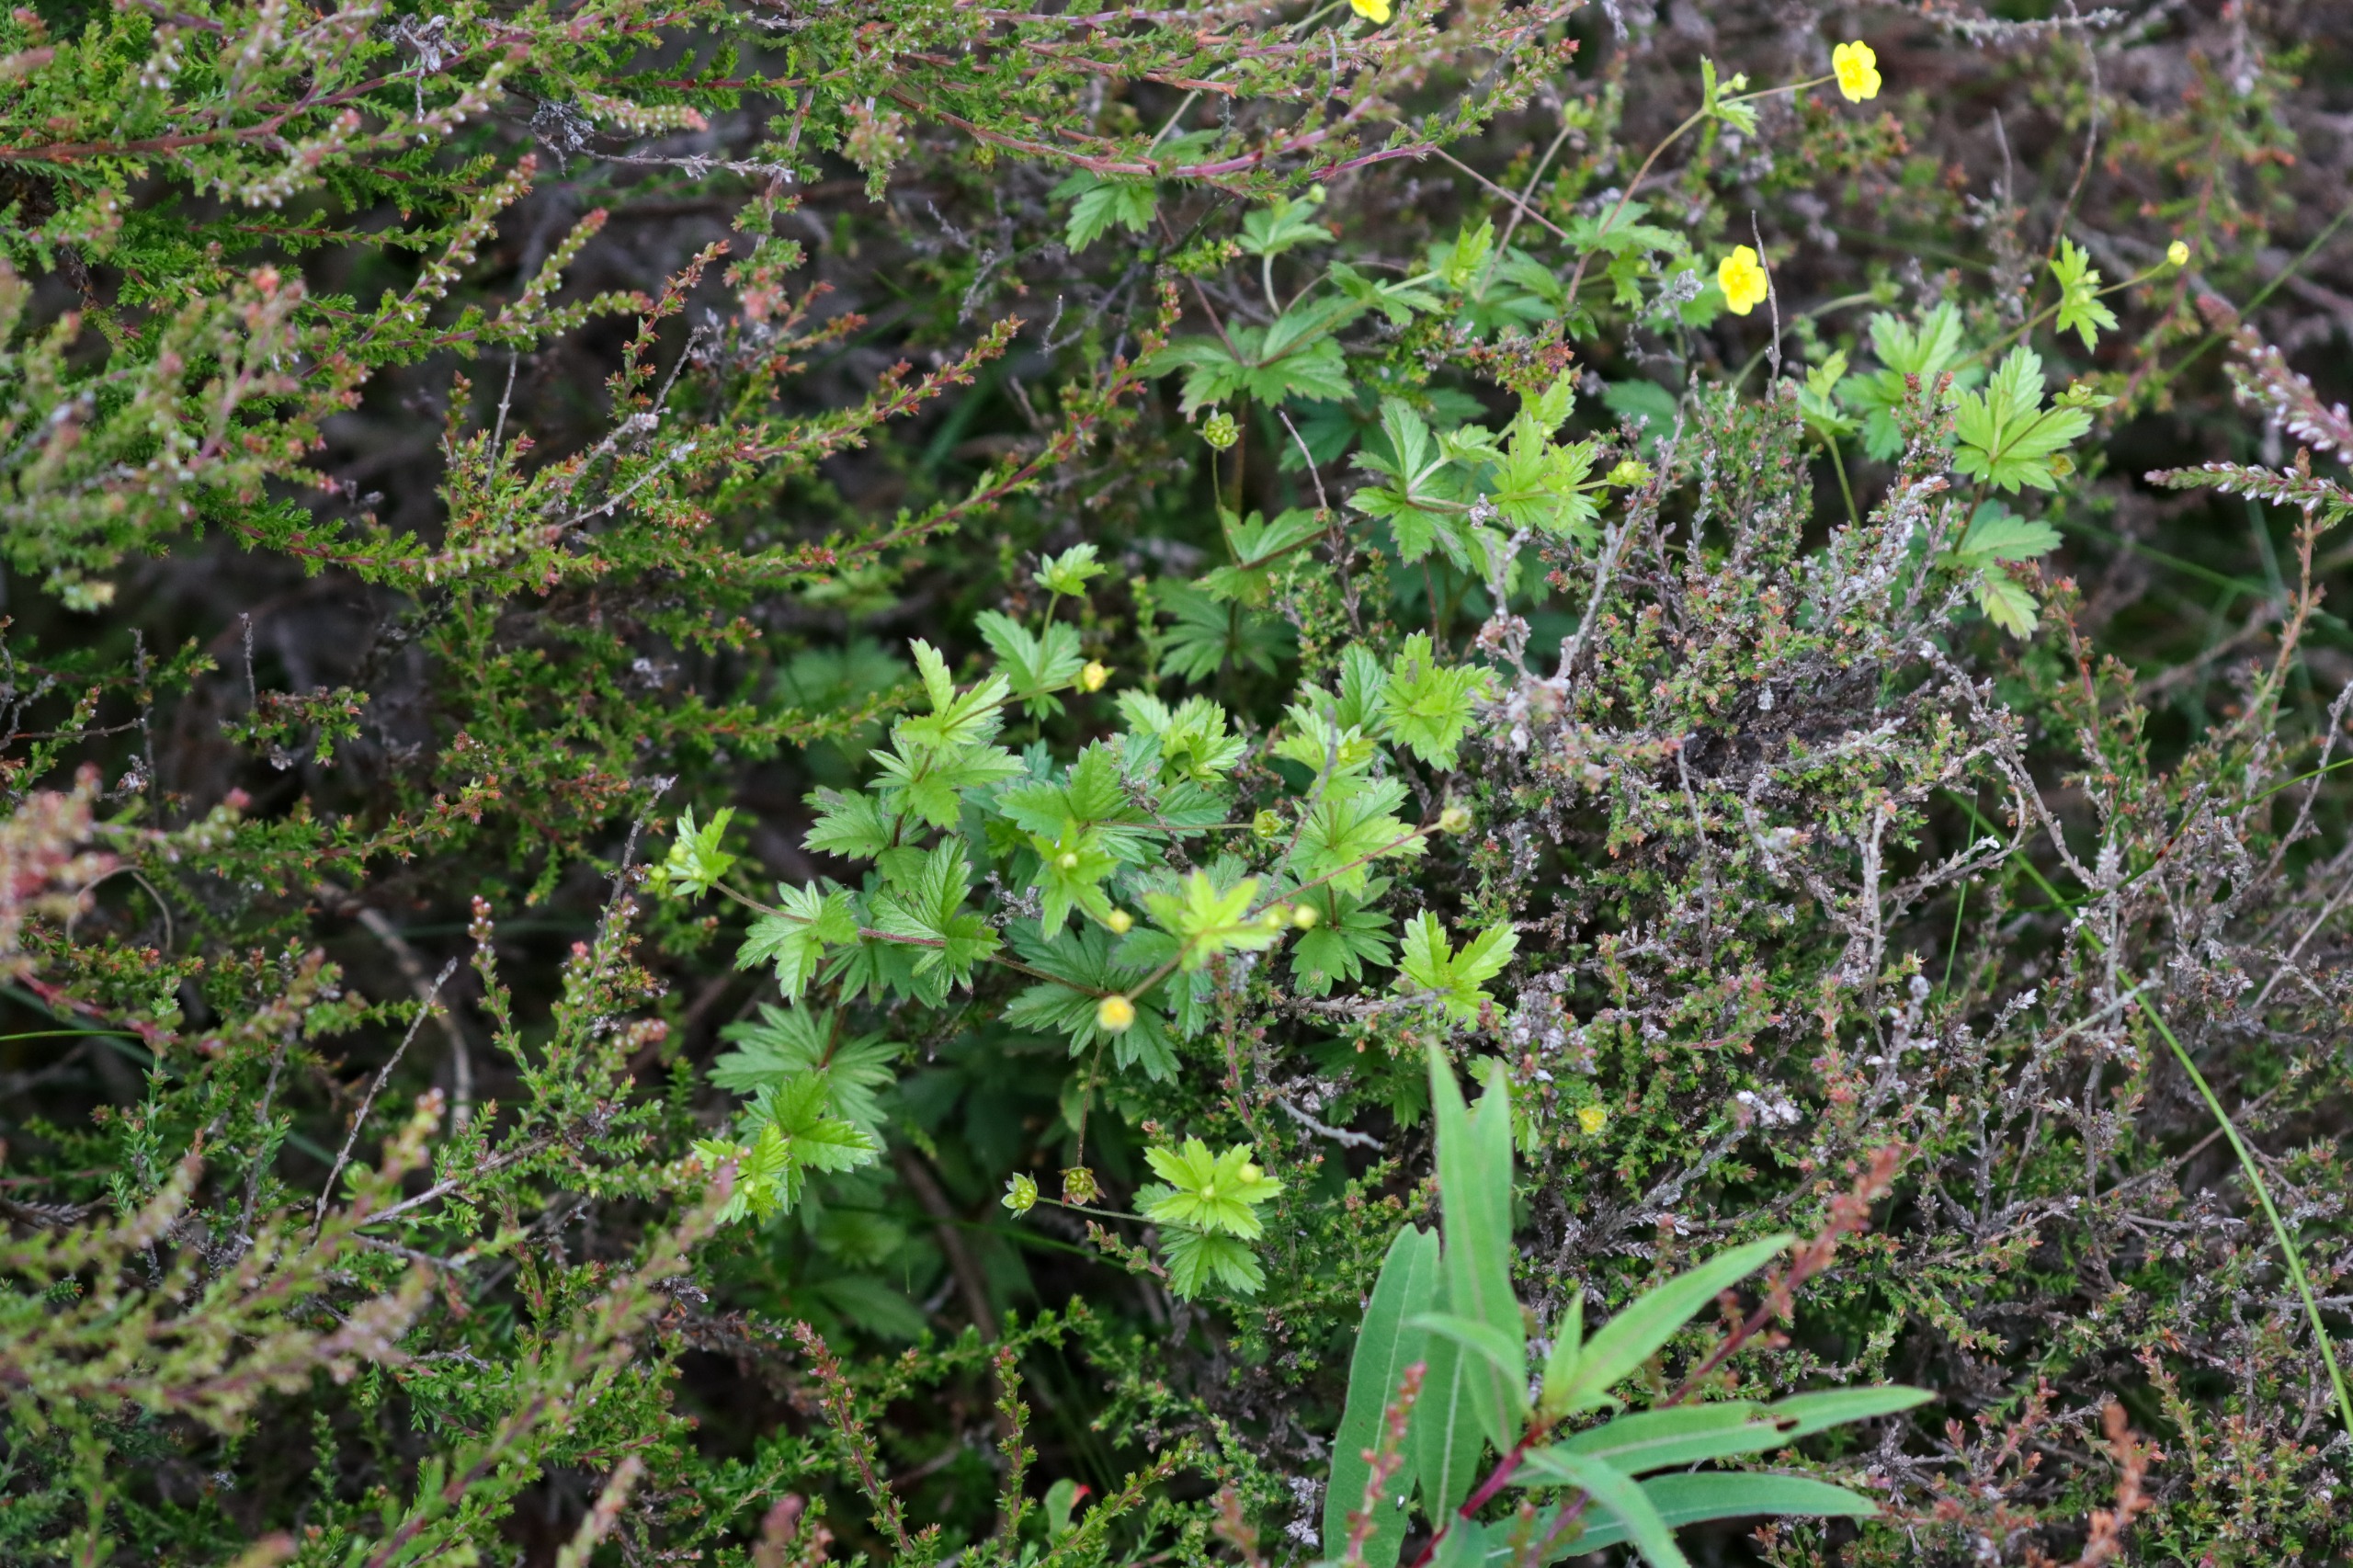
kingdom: Plantae
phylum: Tracheophyta
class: Magnoliopsida
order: Rosales
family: Rosaceae
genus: Potentilla
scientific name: Potentilla erecta
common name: Tormentil
